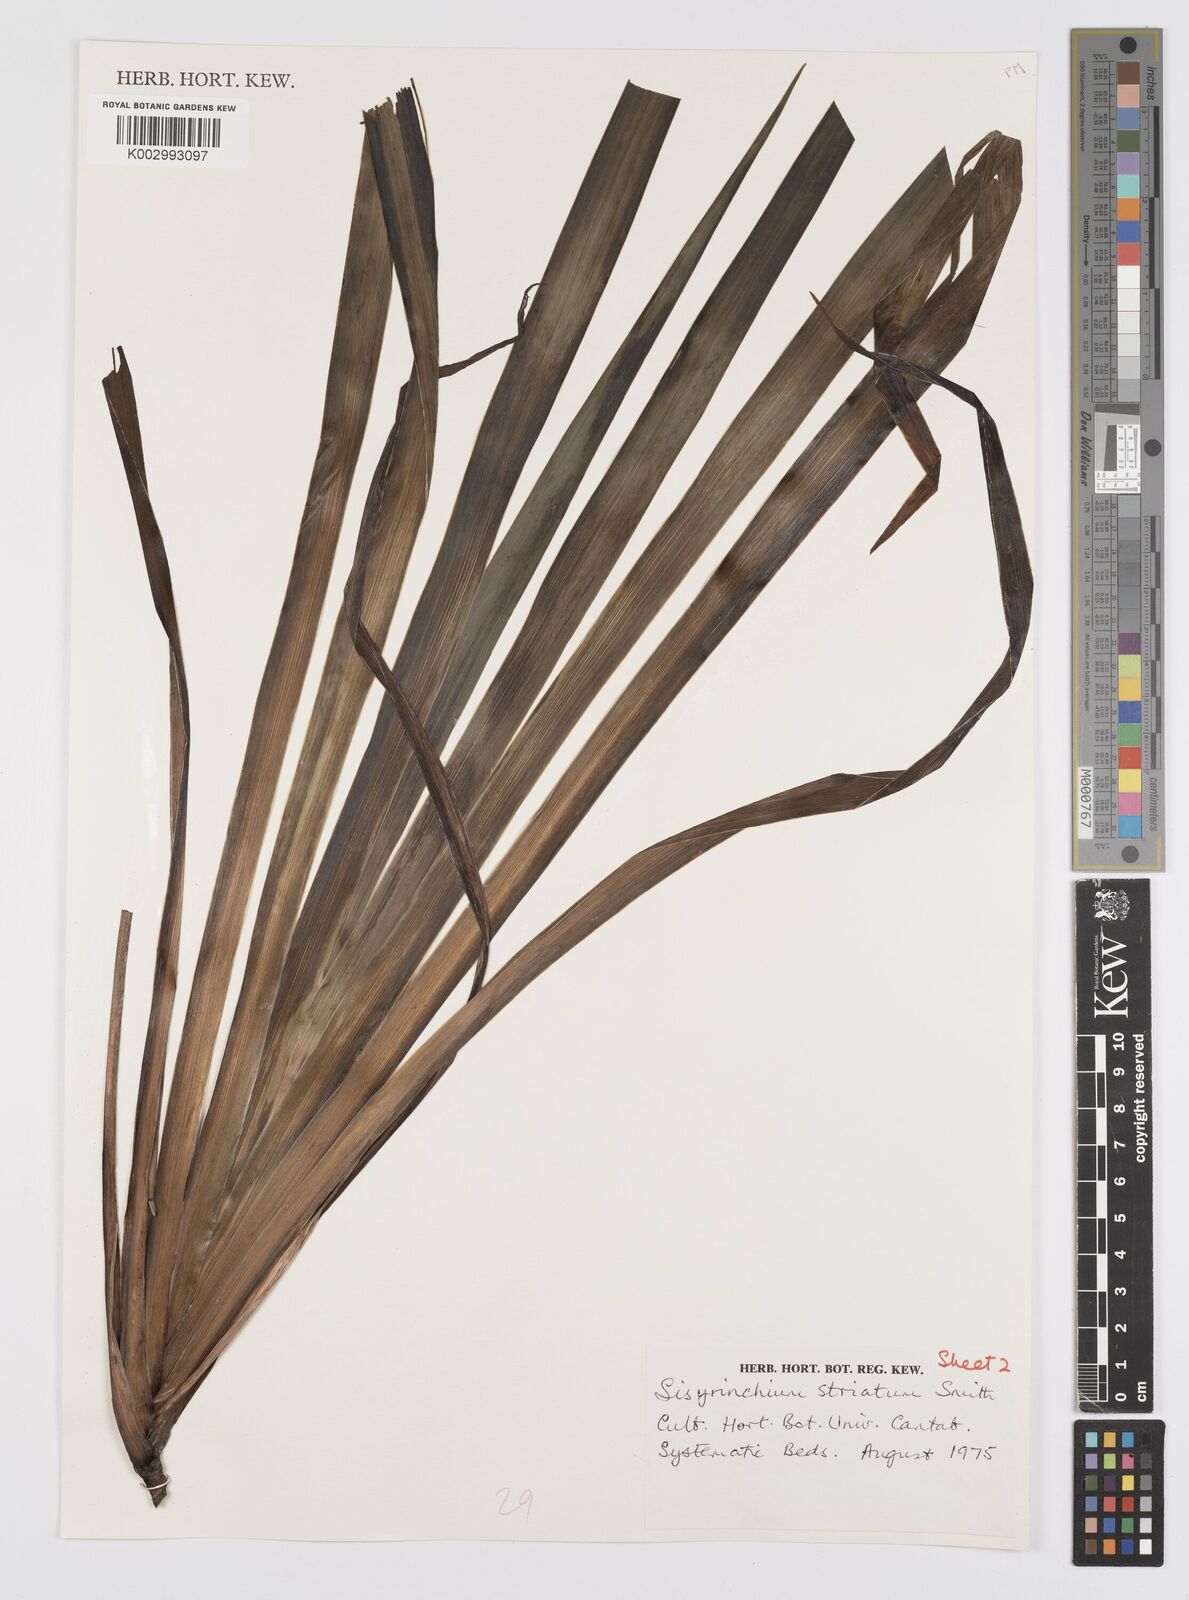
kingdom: Plantae
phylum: Tracheophyta
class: Liliopsida
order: Asparagales
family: Iridaceae
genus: Sisyrinchium
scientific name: Sisyrinchium striatum
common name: Pale yellow-eyed-grass
